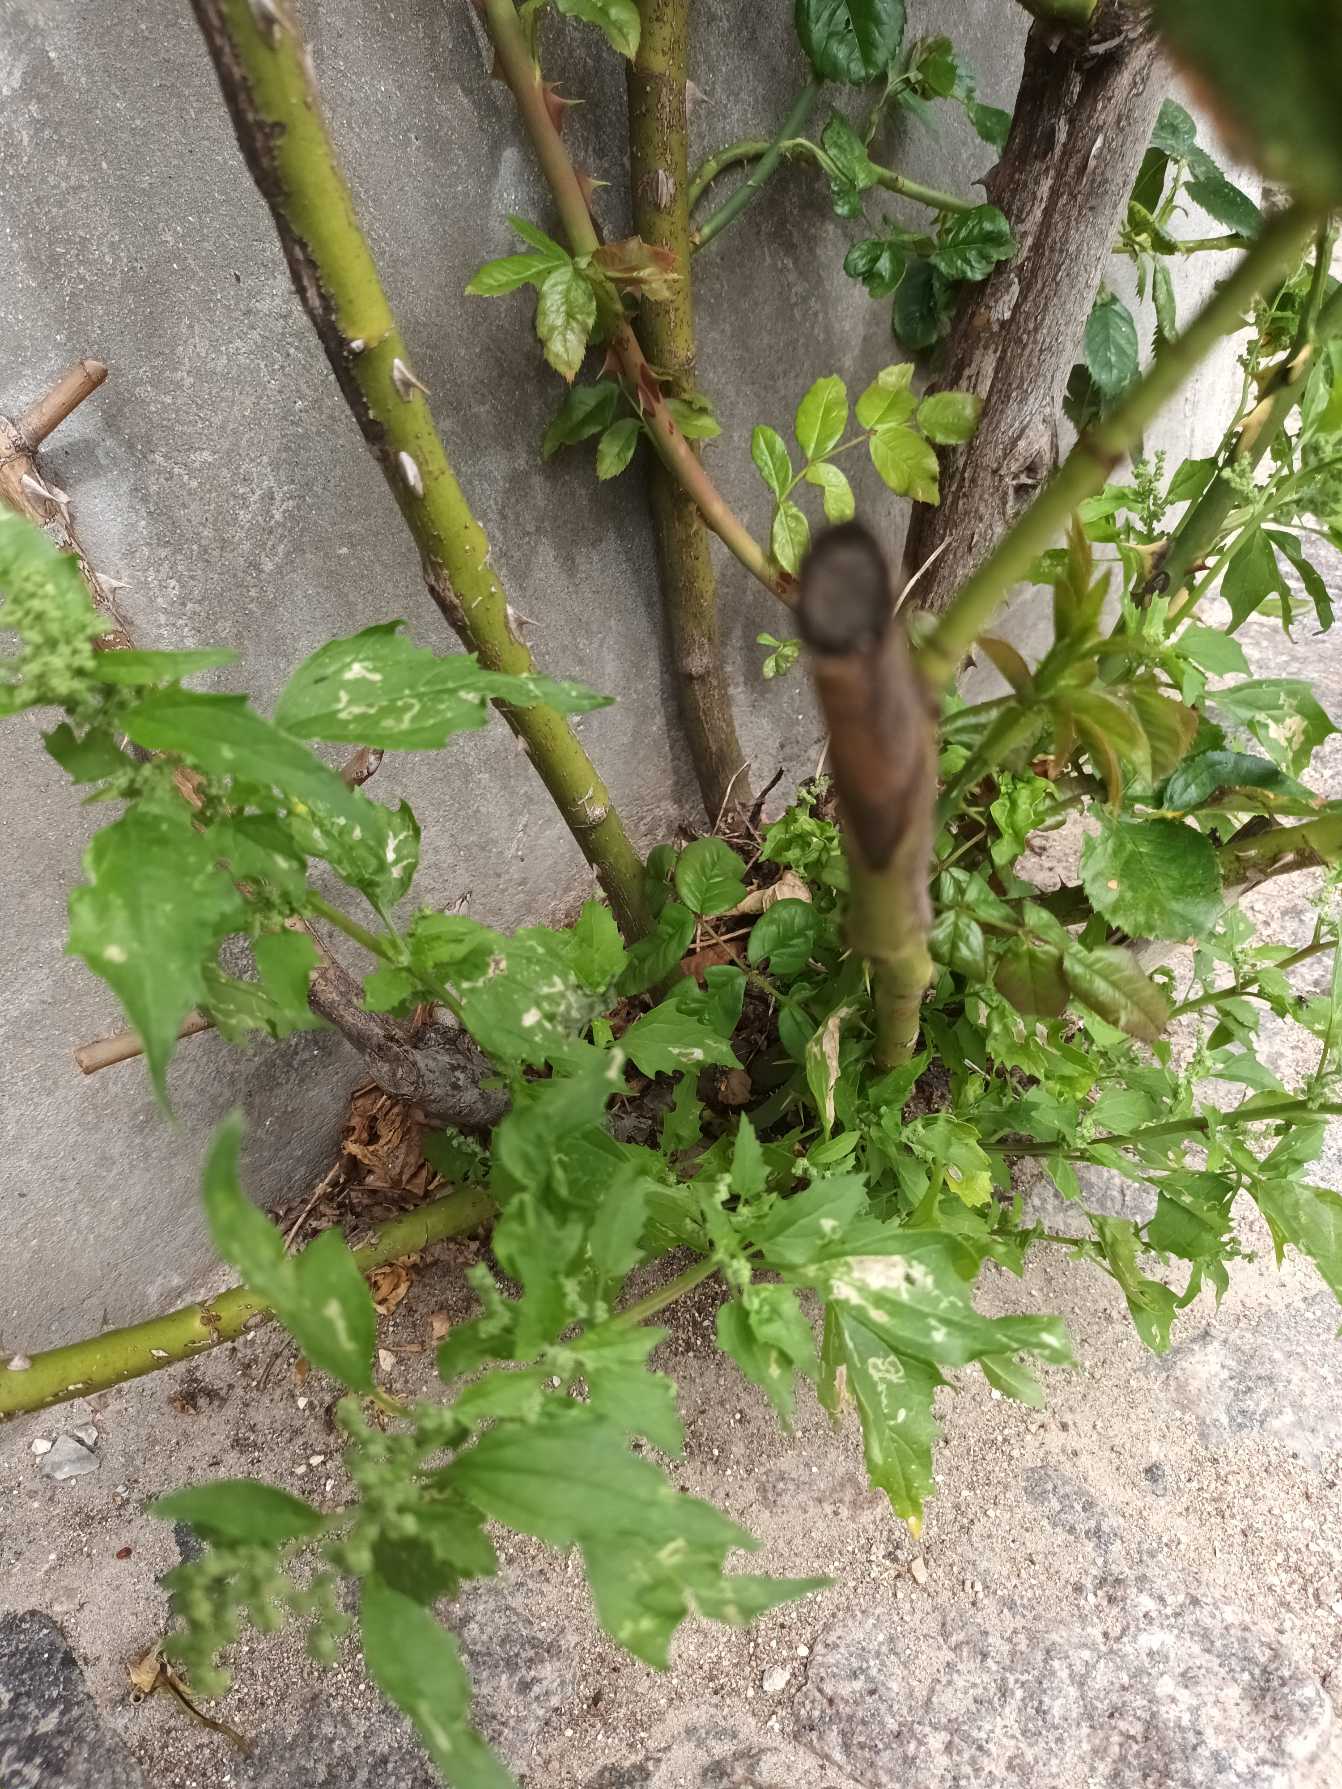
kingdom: Plantae
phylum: Tracheophyta
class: Magnoliopsida
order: Caryophyllales
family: Amaranthaceae
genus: Chenopodiastrum
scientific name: Chenopodiastrum murale
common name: Mur-gåsefod
